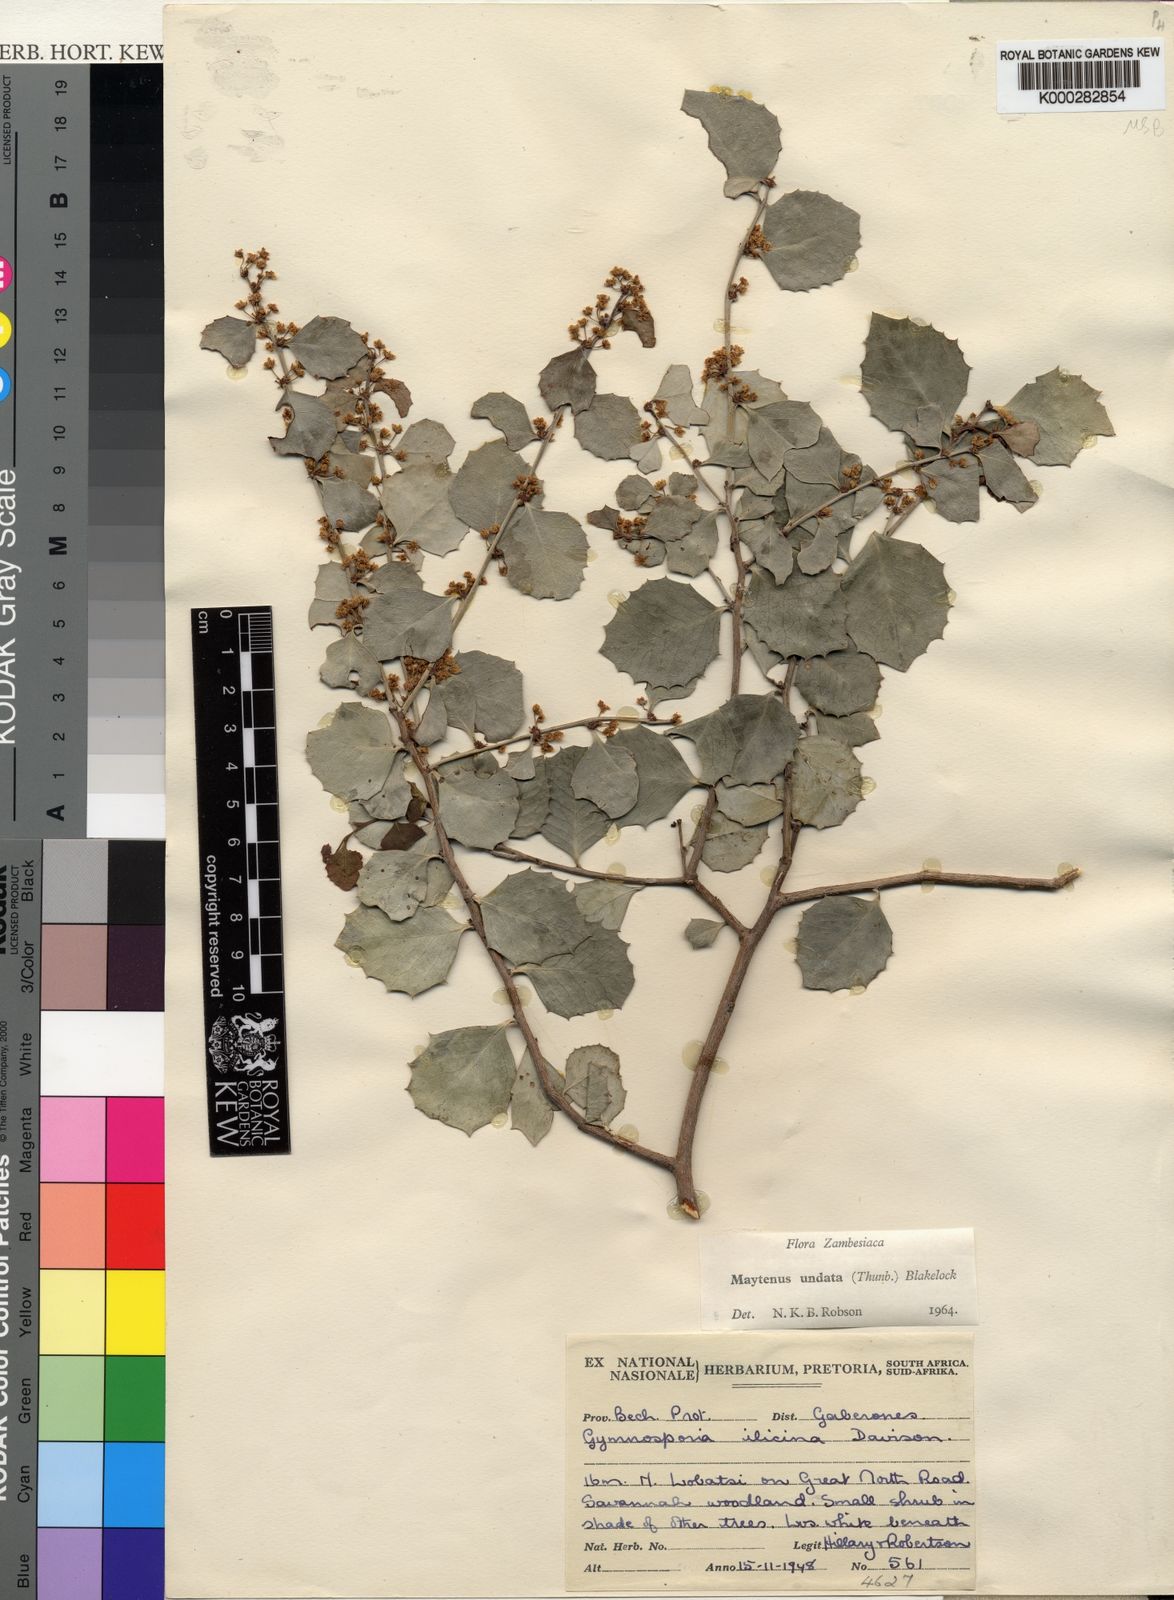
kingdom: Plantae
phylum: Tracheophyta
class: Magnoliopsida
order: Celastrales
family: Celastraceae
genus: Gymnosporia
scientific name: Gymnosporia undata
